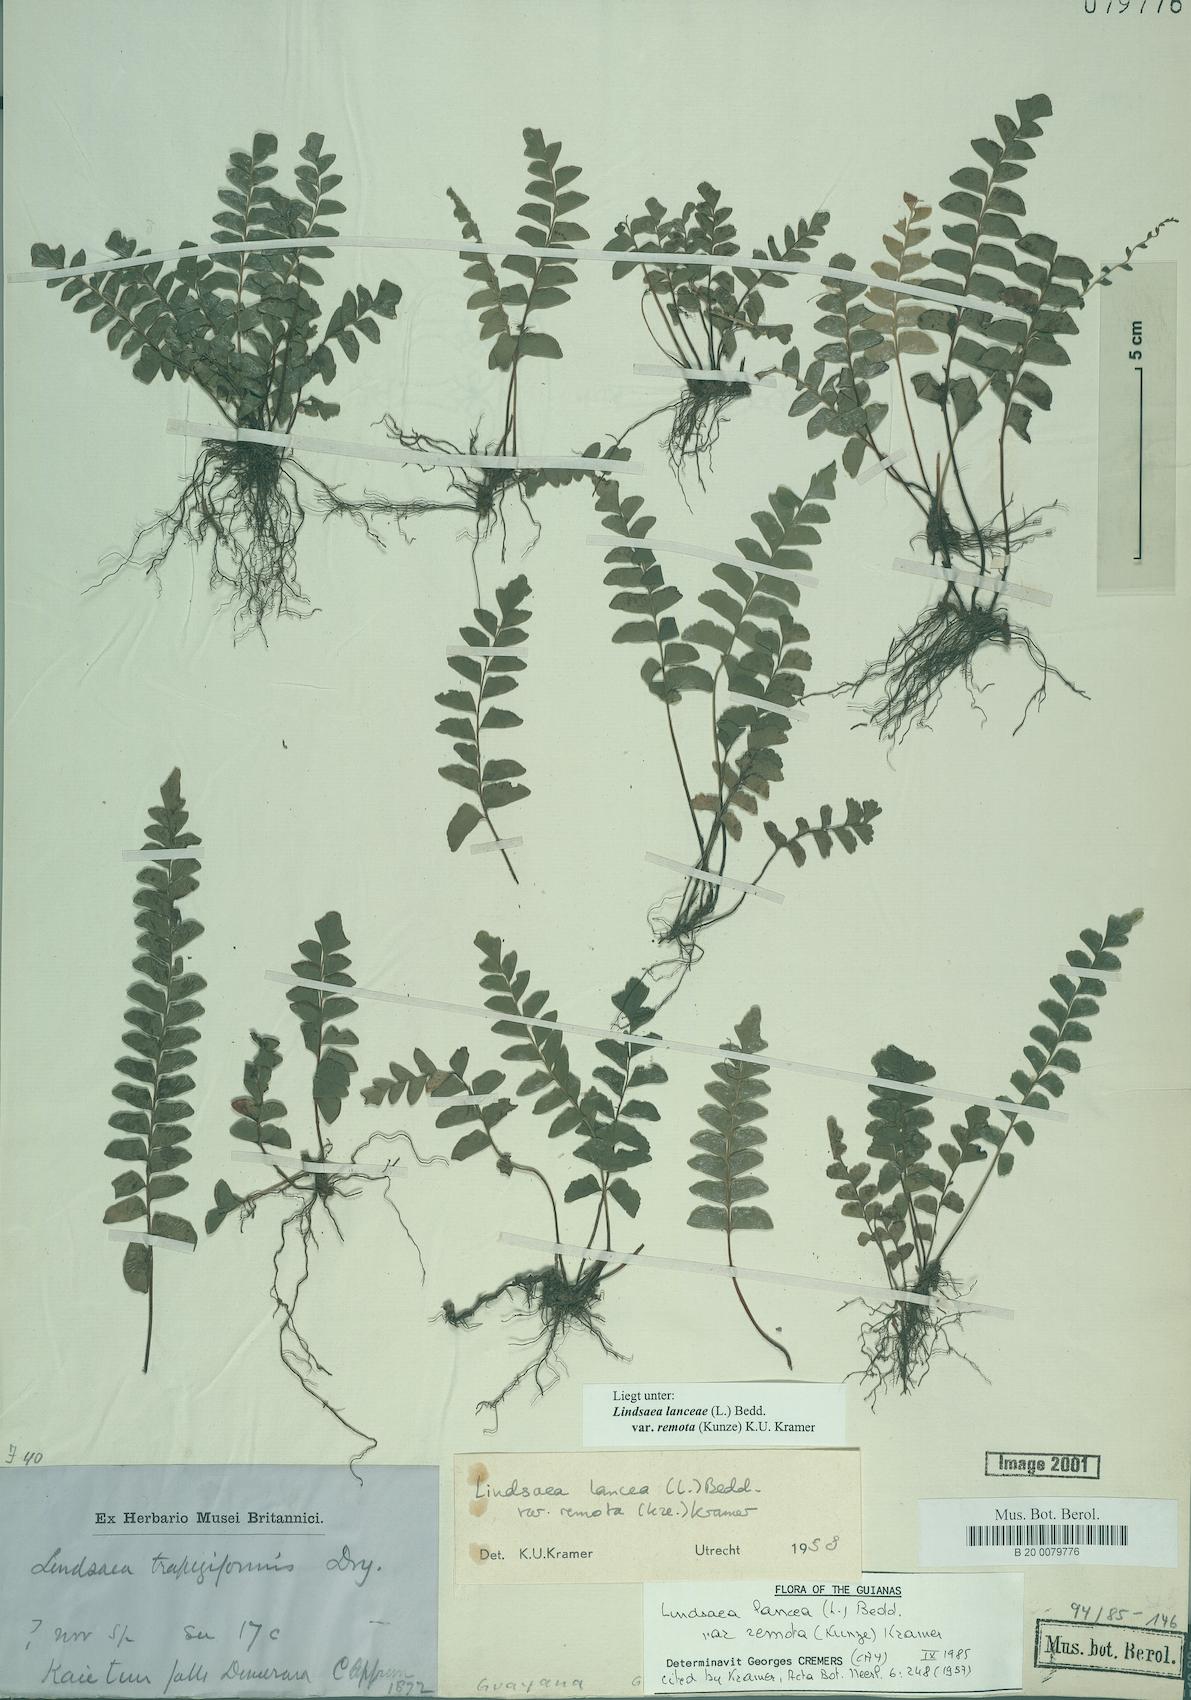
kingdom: Plantae
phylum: Tracheophyta
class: Polypodiopsida
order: Polypodiales
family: Lindsaeaceae
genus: Lindsaea
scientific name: Lindsaea lancea
